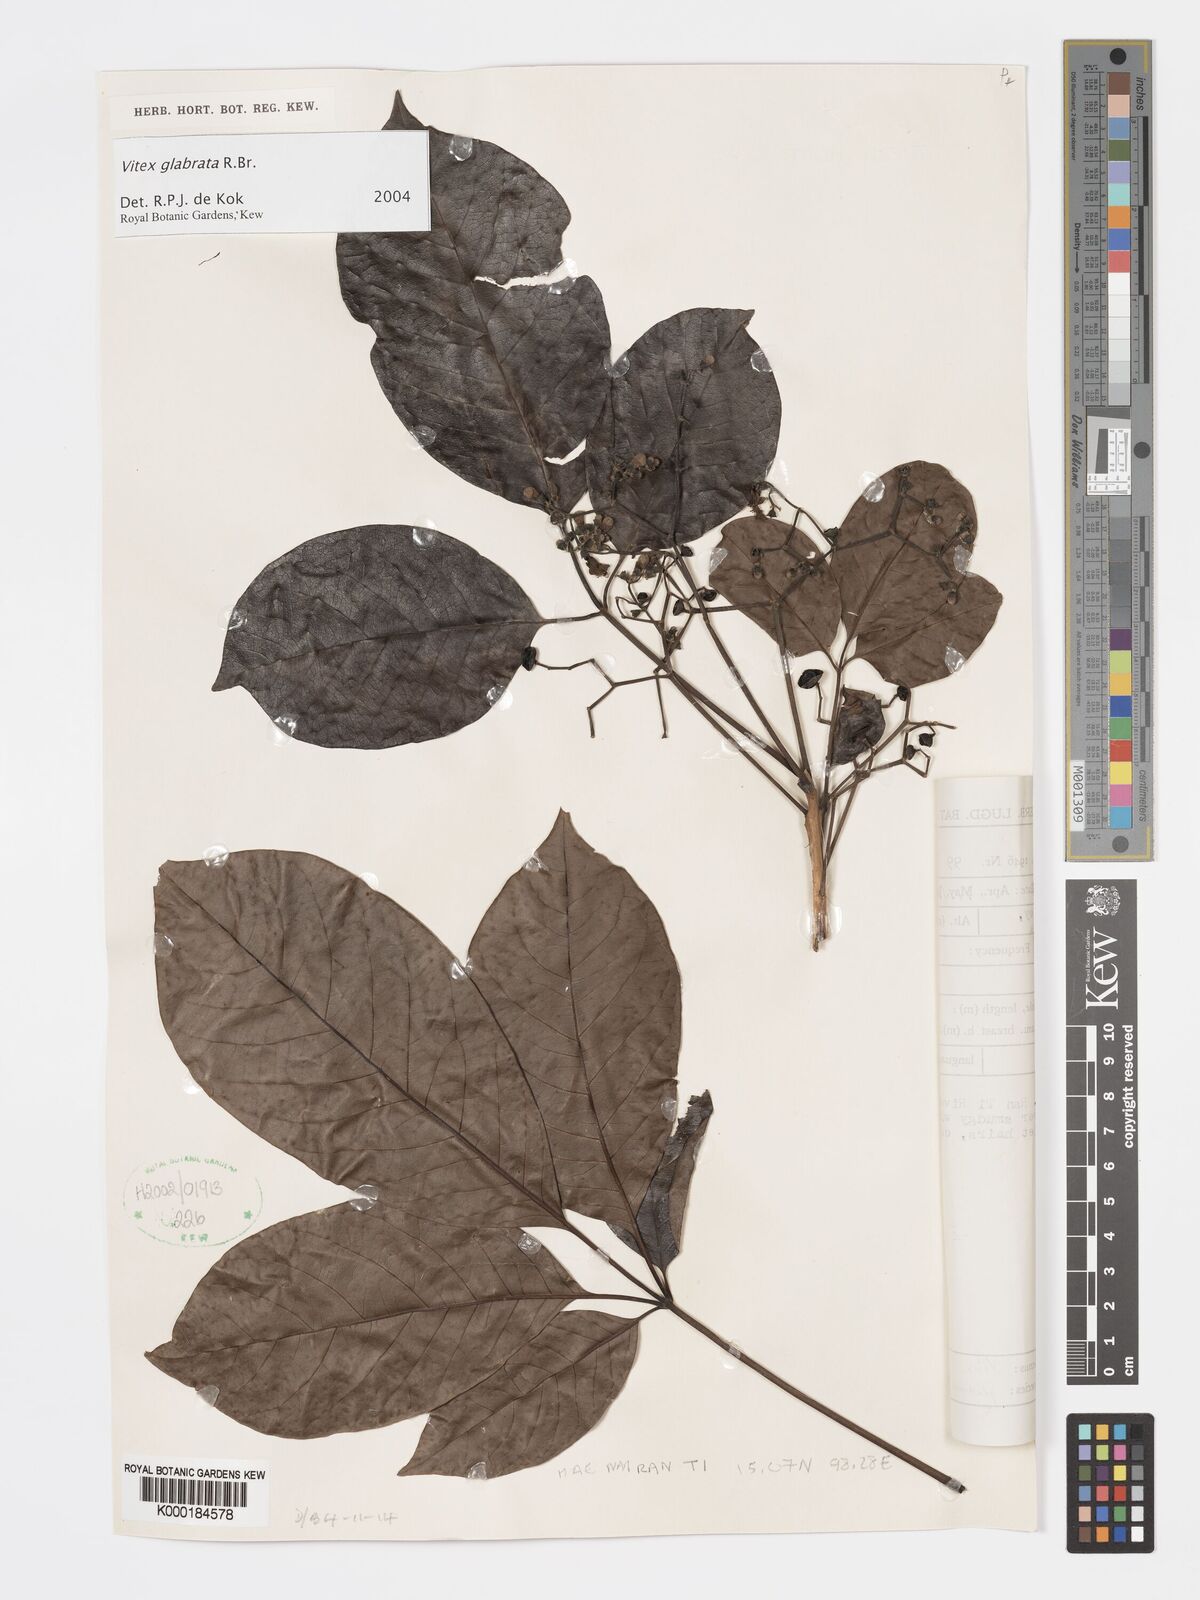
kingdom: Plantae
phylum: Tracheophyta
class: Magnoliopsida
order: Lamiales
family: Lamiaceae
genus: Vitex
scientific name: Vitex glabrata
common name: Smooth chastetree
